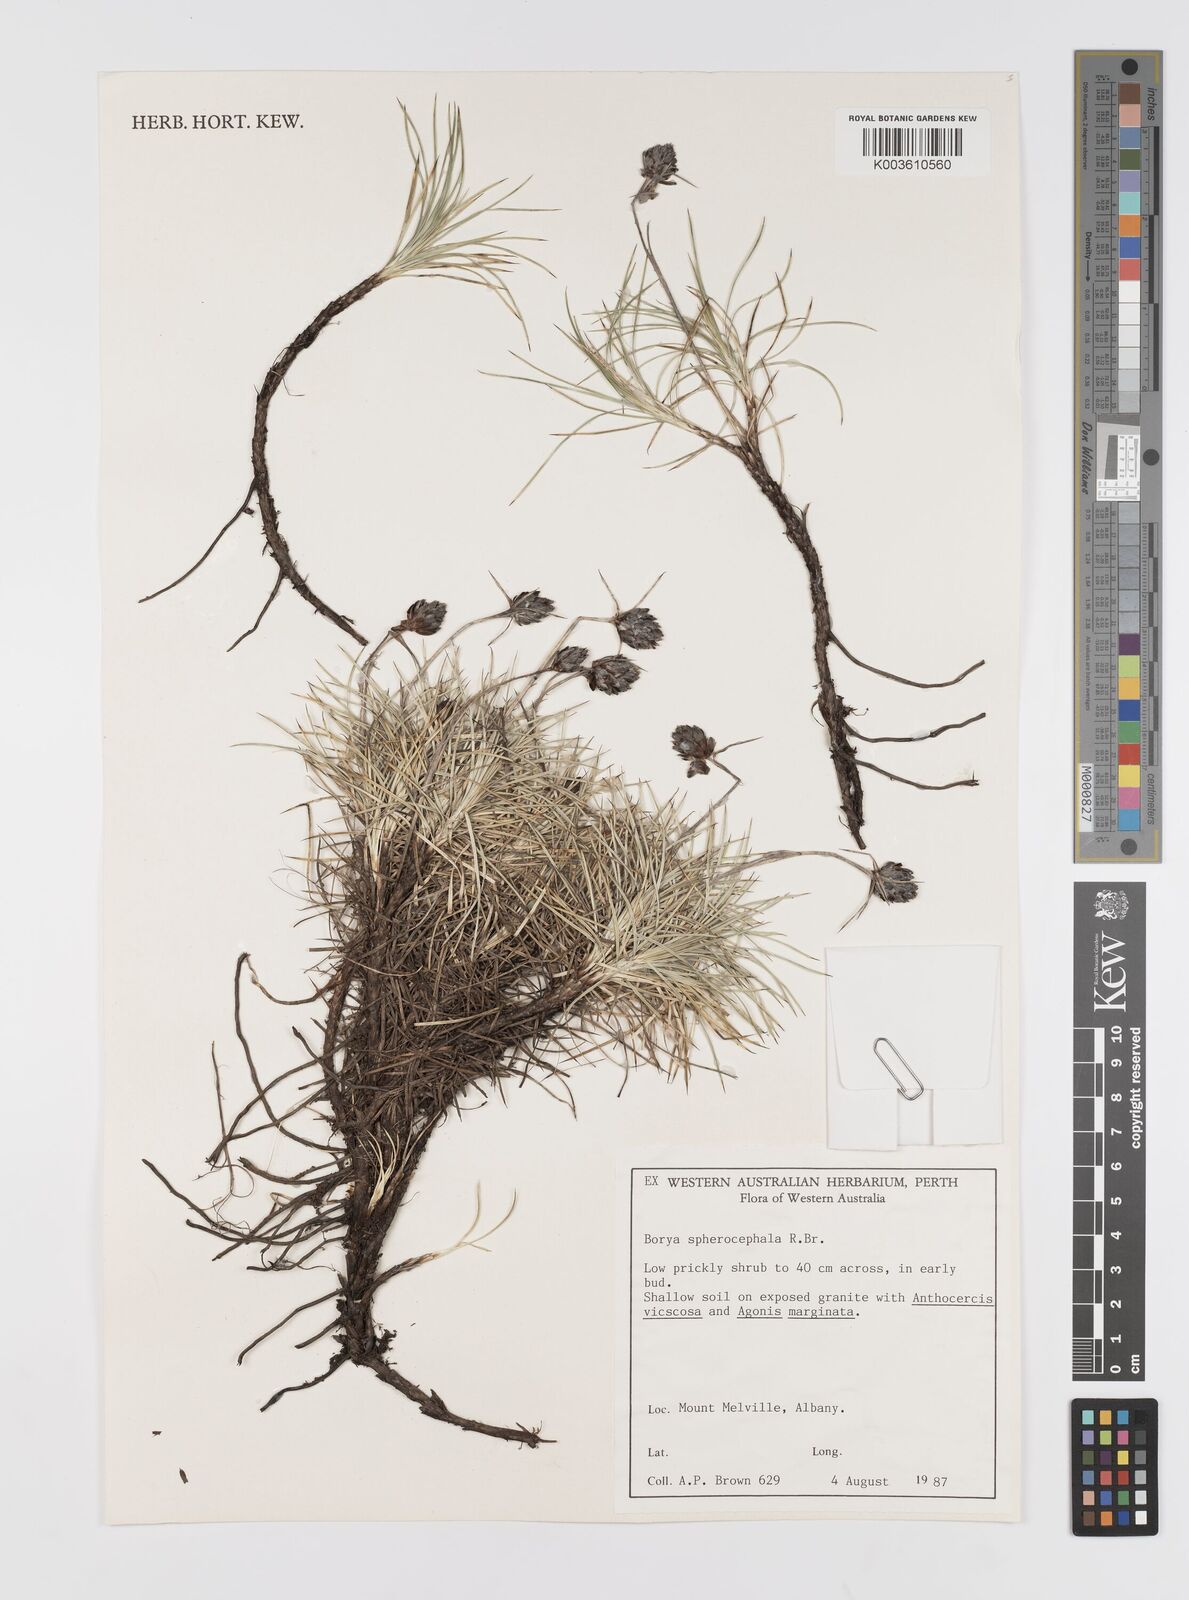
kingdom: Plantae
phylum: Tracheophyta
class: Liliopsida
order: Asparagales
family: Boryaceae
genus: Borya
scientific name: Borya sphaerocephala
